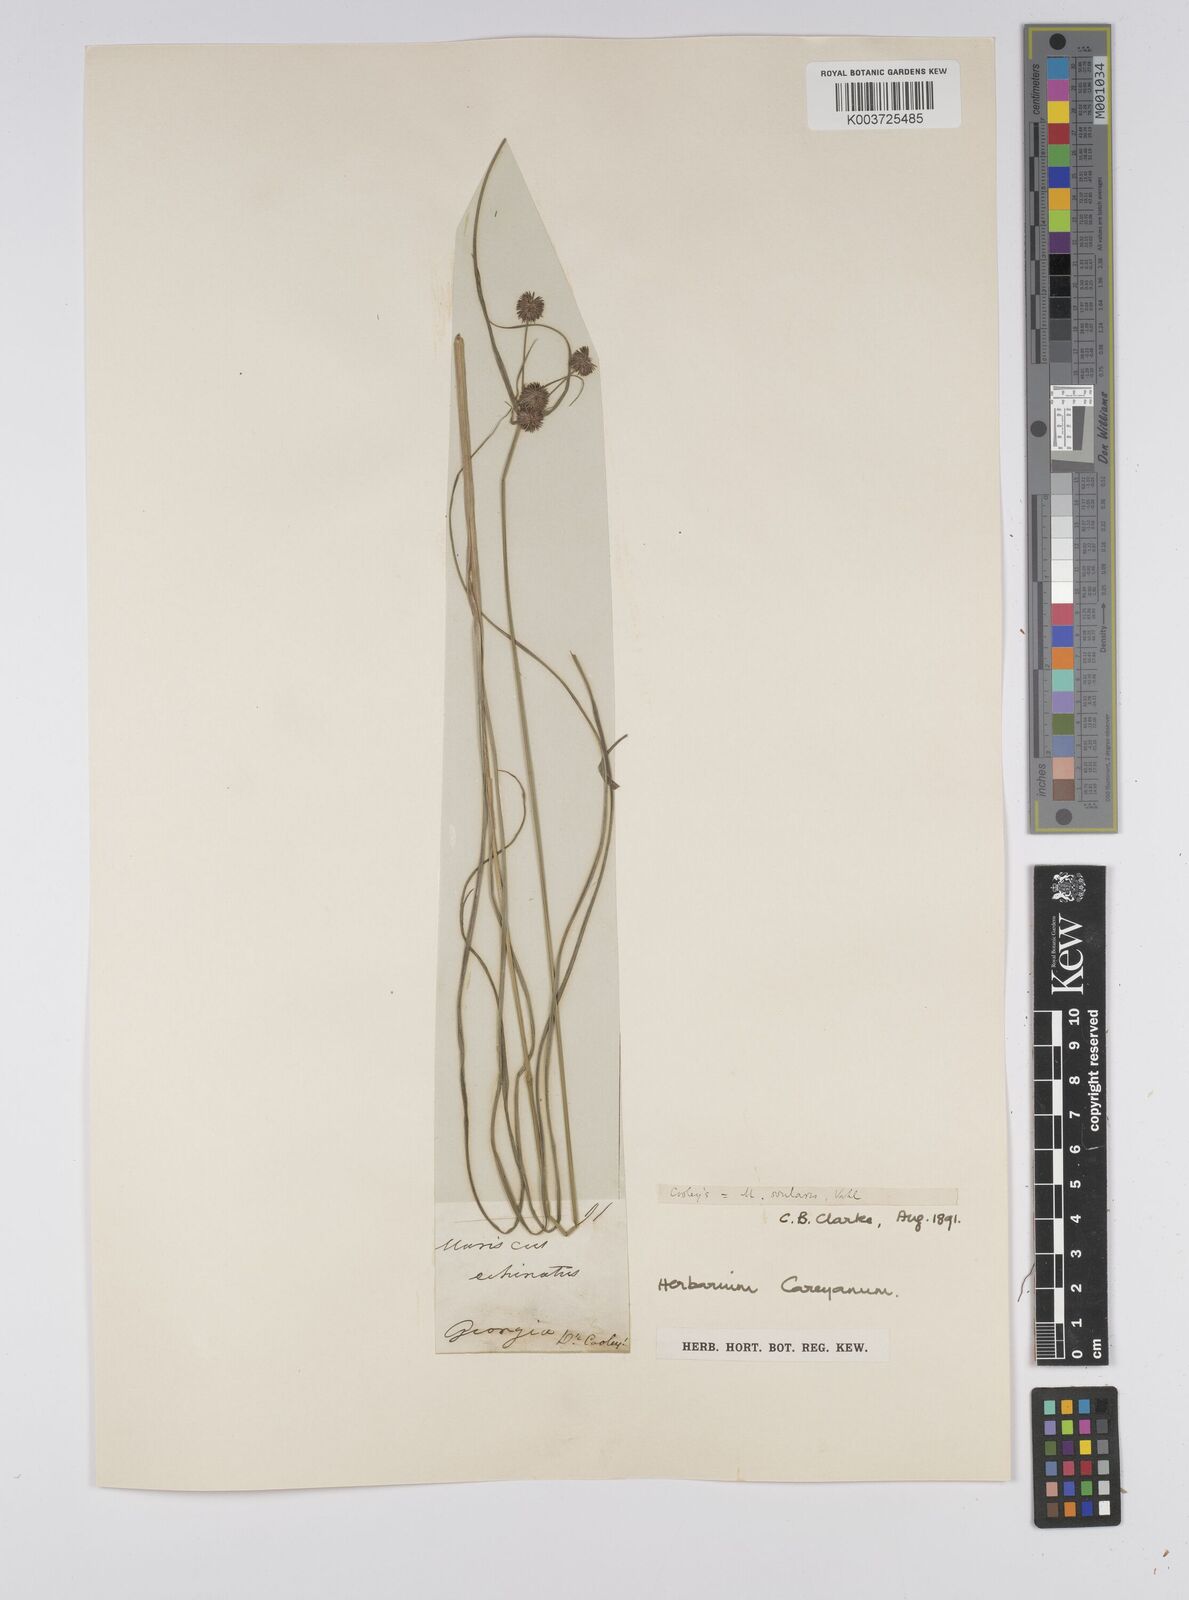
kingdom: Plantae
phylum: Tracheophyta
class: Liliopsida
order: Poales
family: Cyperaceae
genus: Cyperus
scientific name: Cyperus echinatus
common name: Teasel sedge
